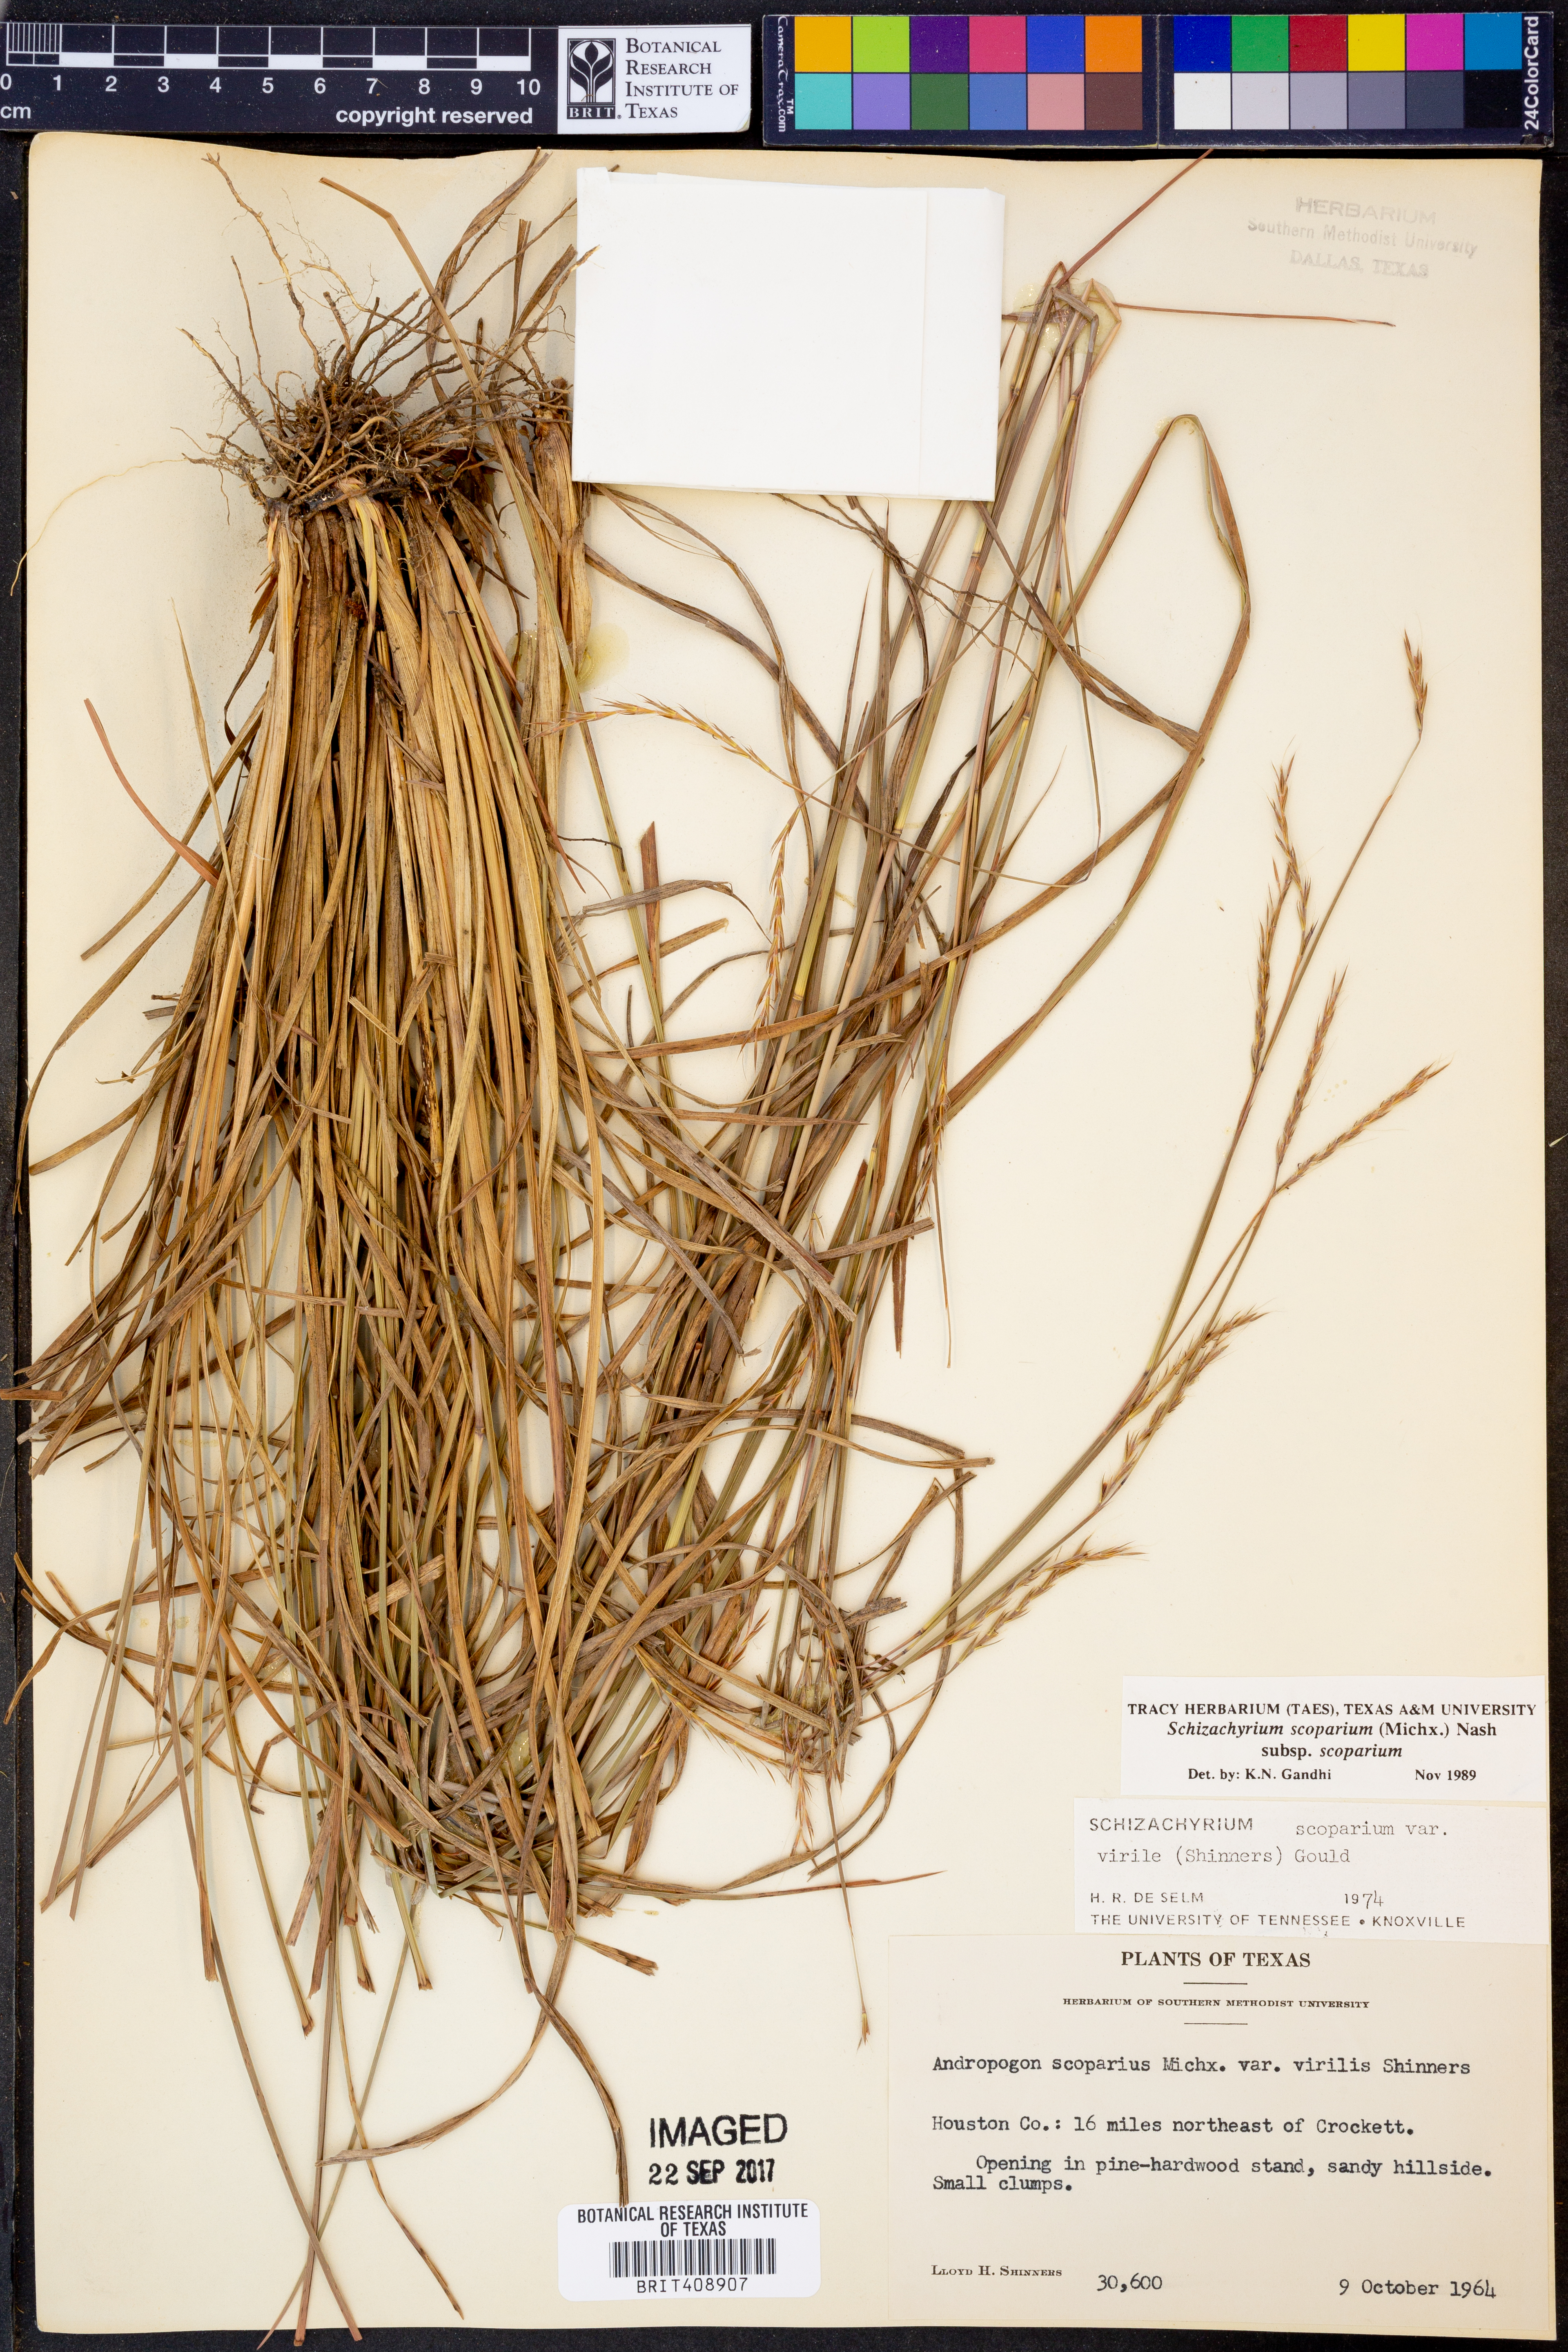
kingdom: Plantae
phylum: Tracheophyta
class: Liliopsida
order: Poales
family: Poaceae
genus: Schizachyrium
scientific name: Schizachyrium scoparium
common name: Little bluestem
